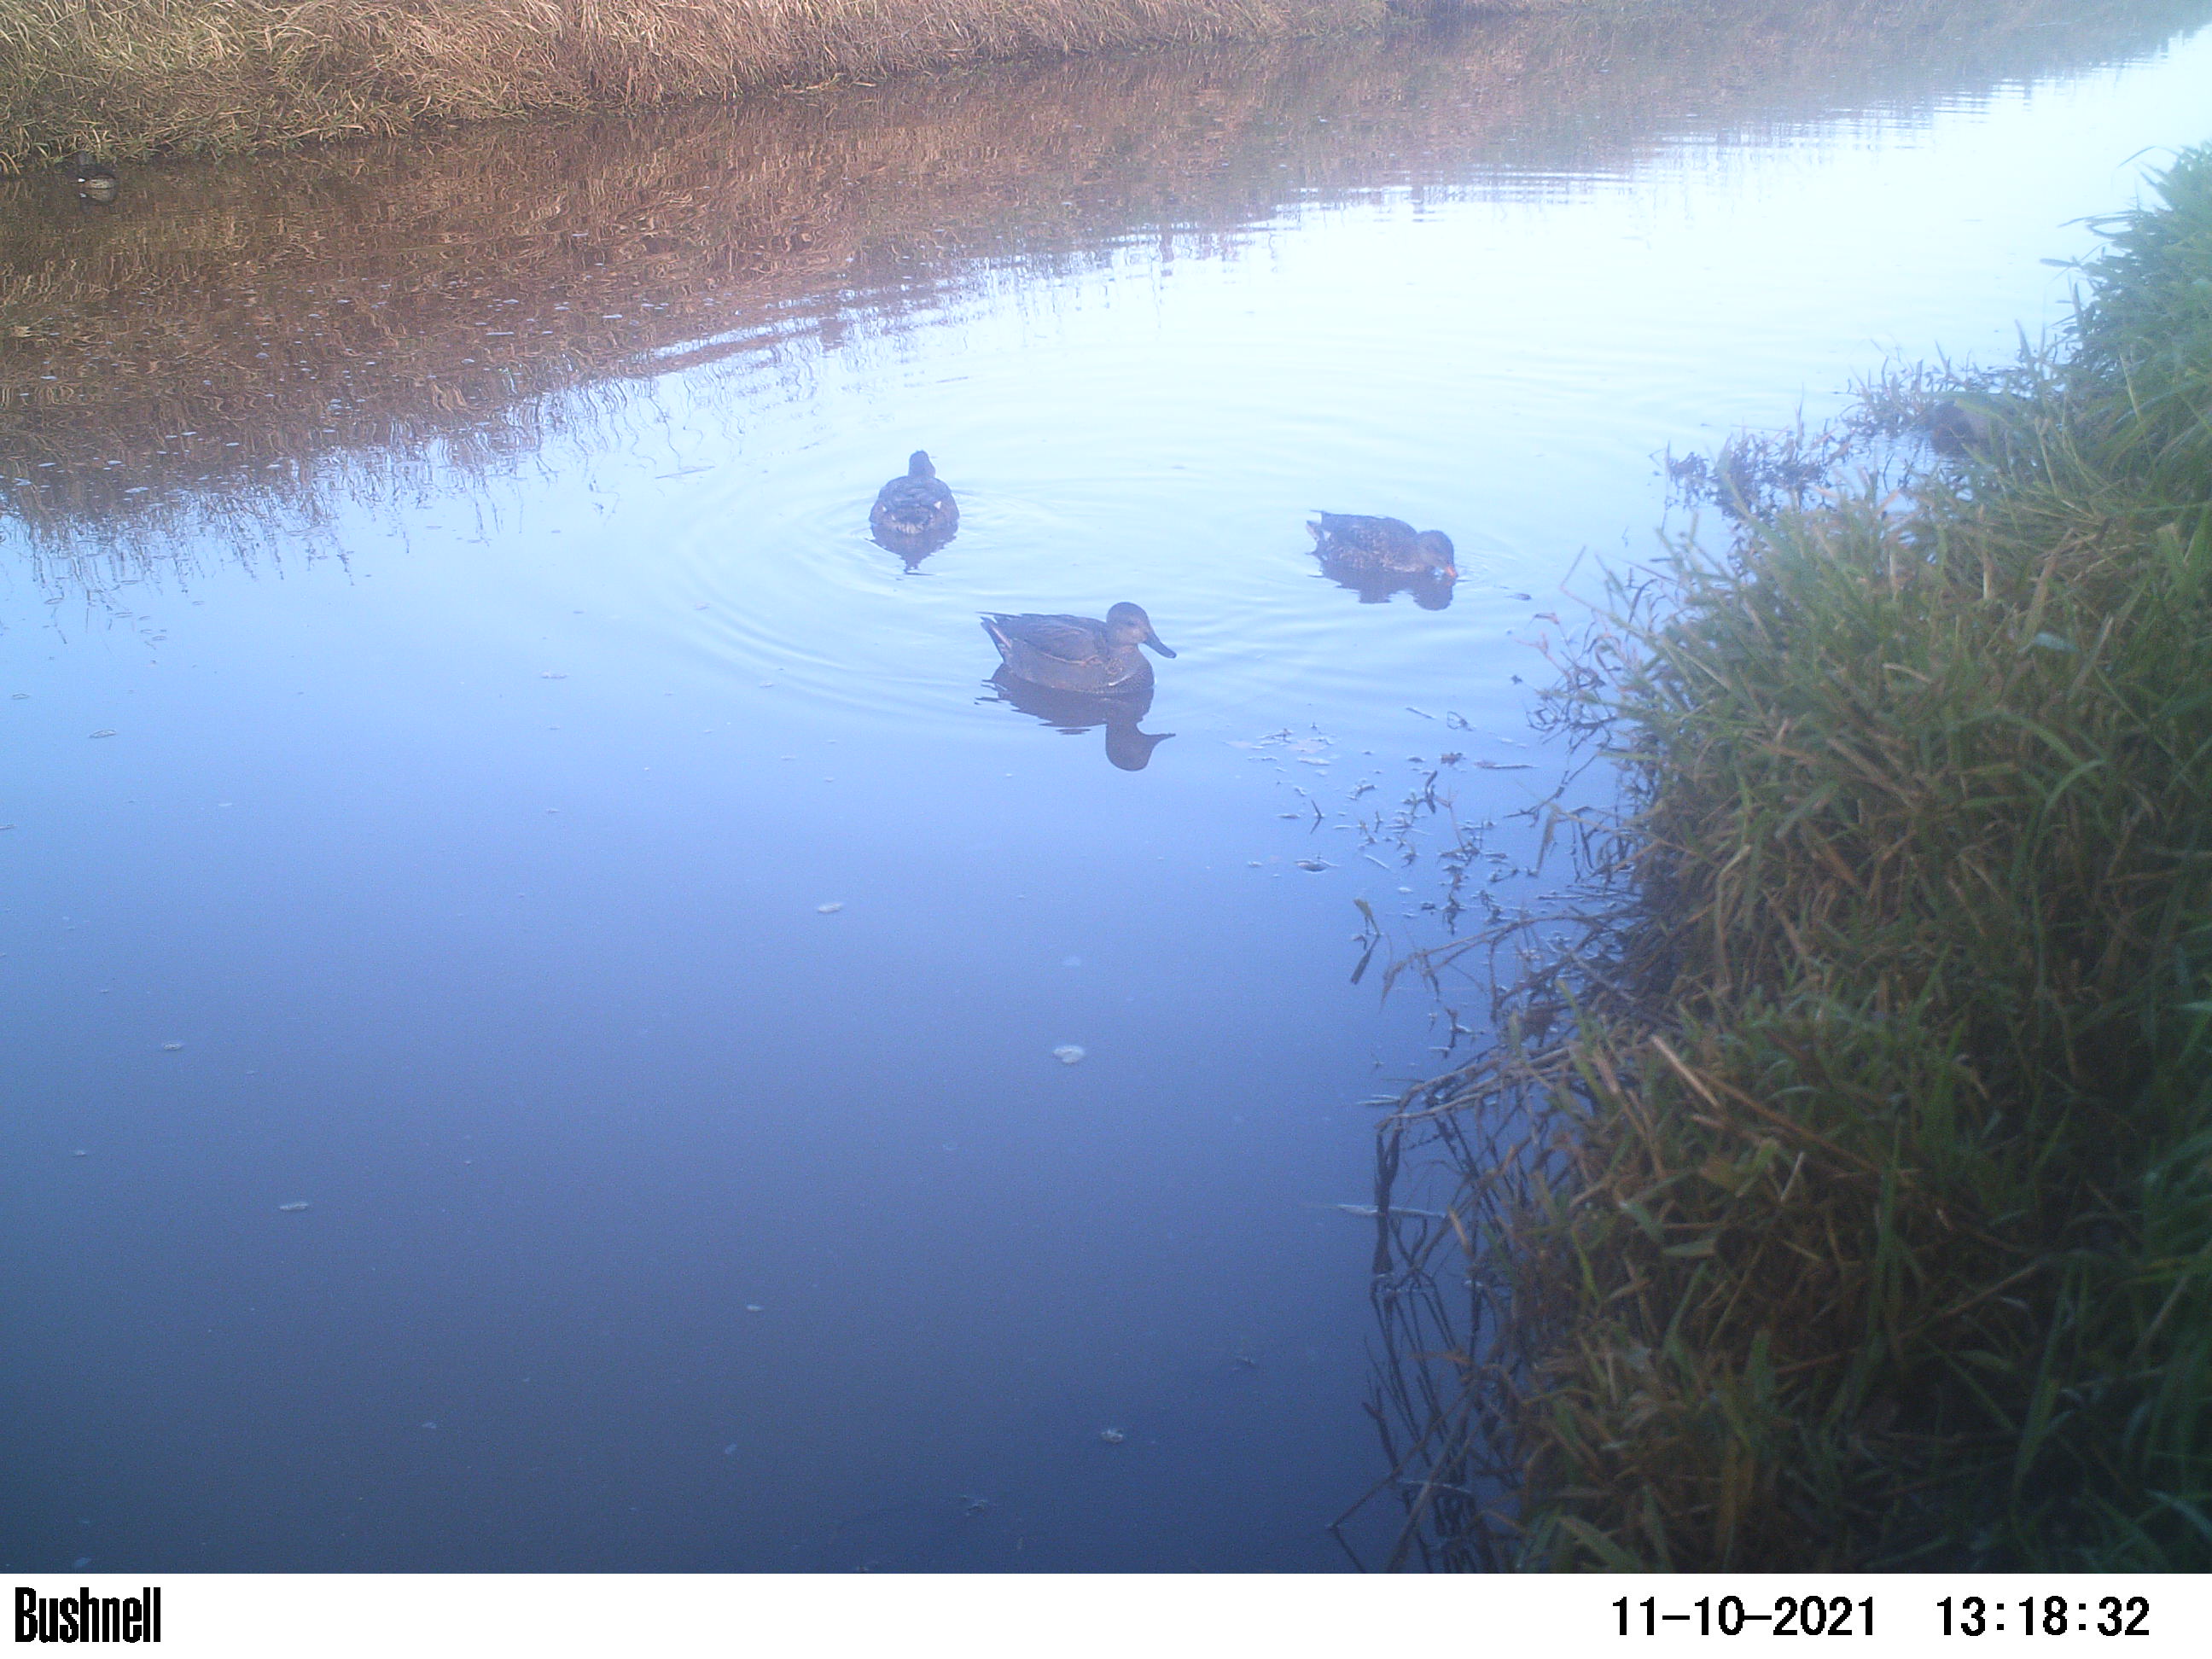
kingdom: Animalia
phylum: Chordata
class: Aves
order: Gruiformes
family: Rallidae
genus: Fulica
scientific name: Fulica atra
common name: Eurasian coot
